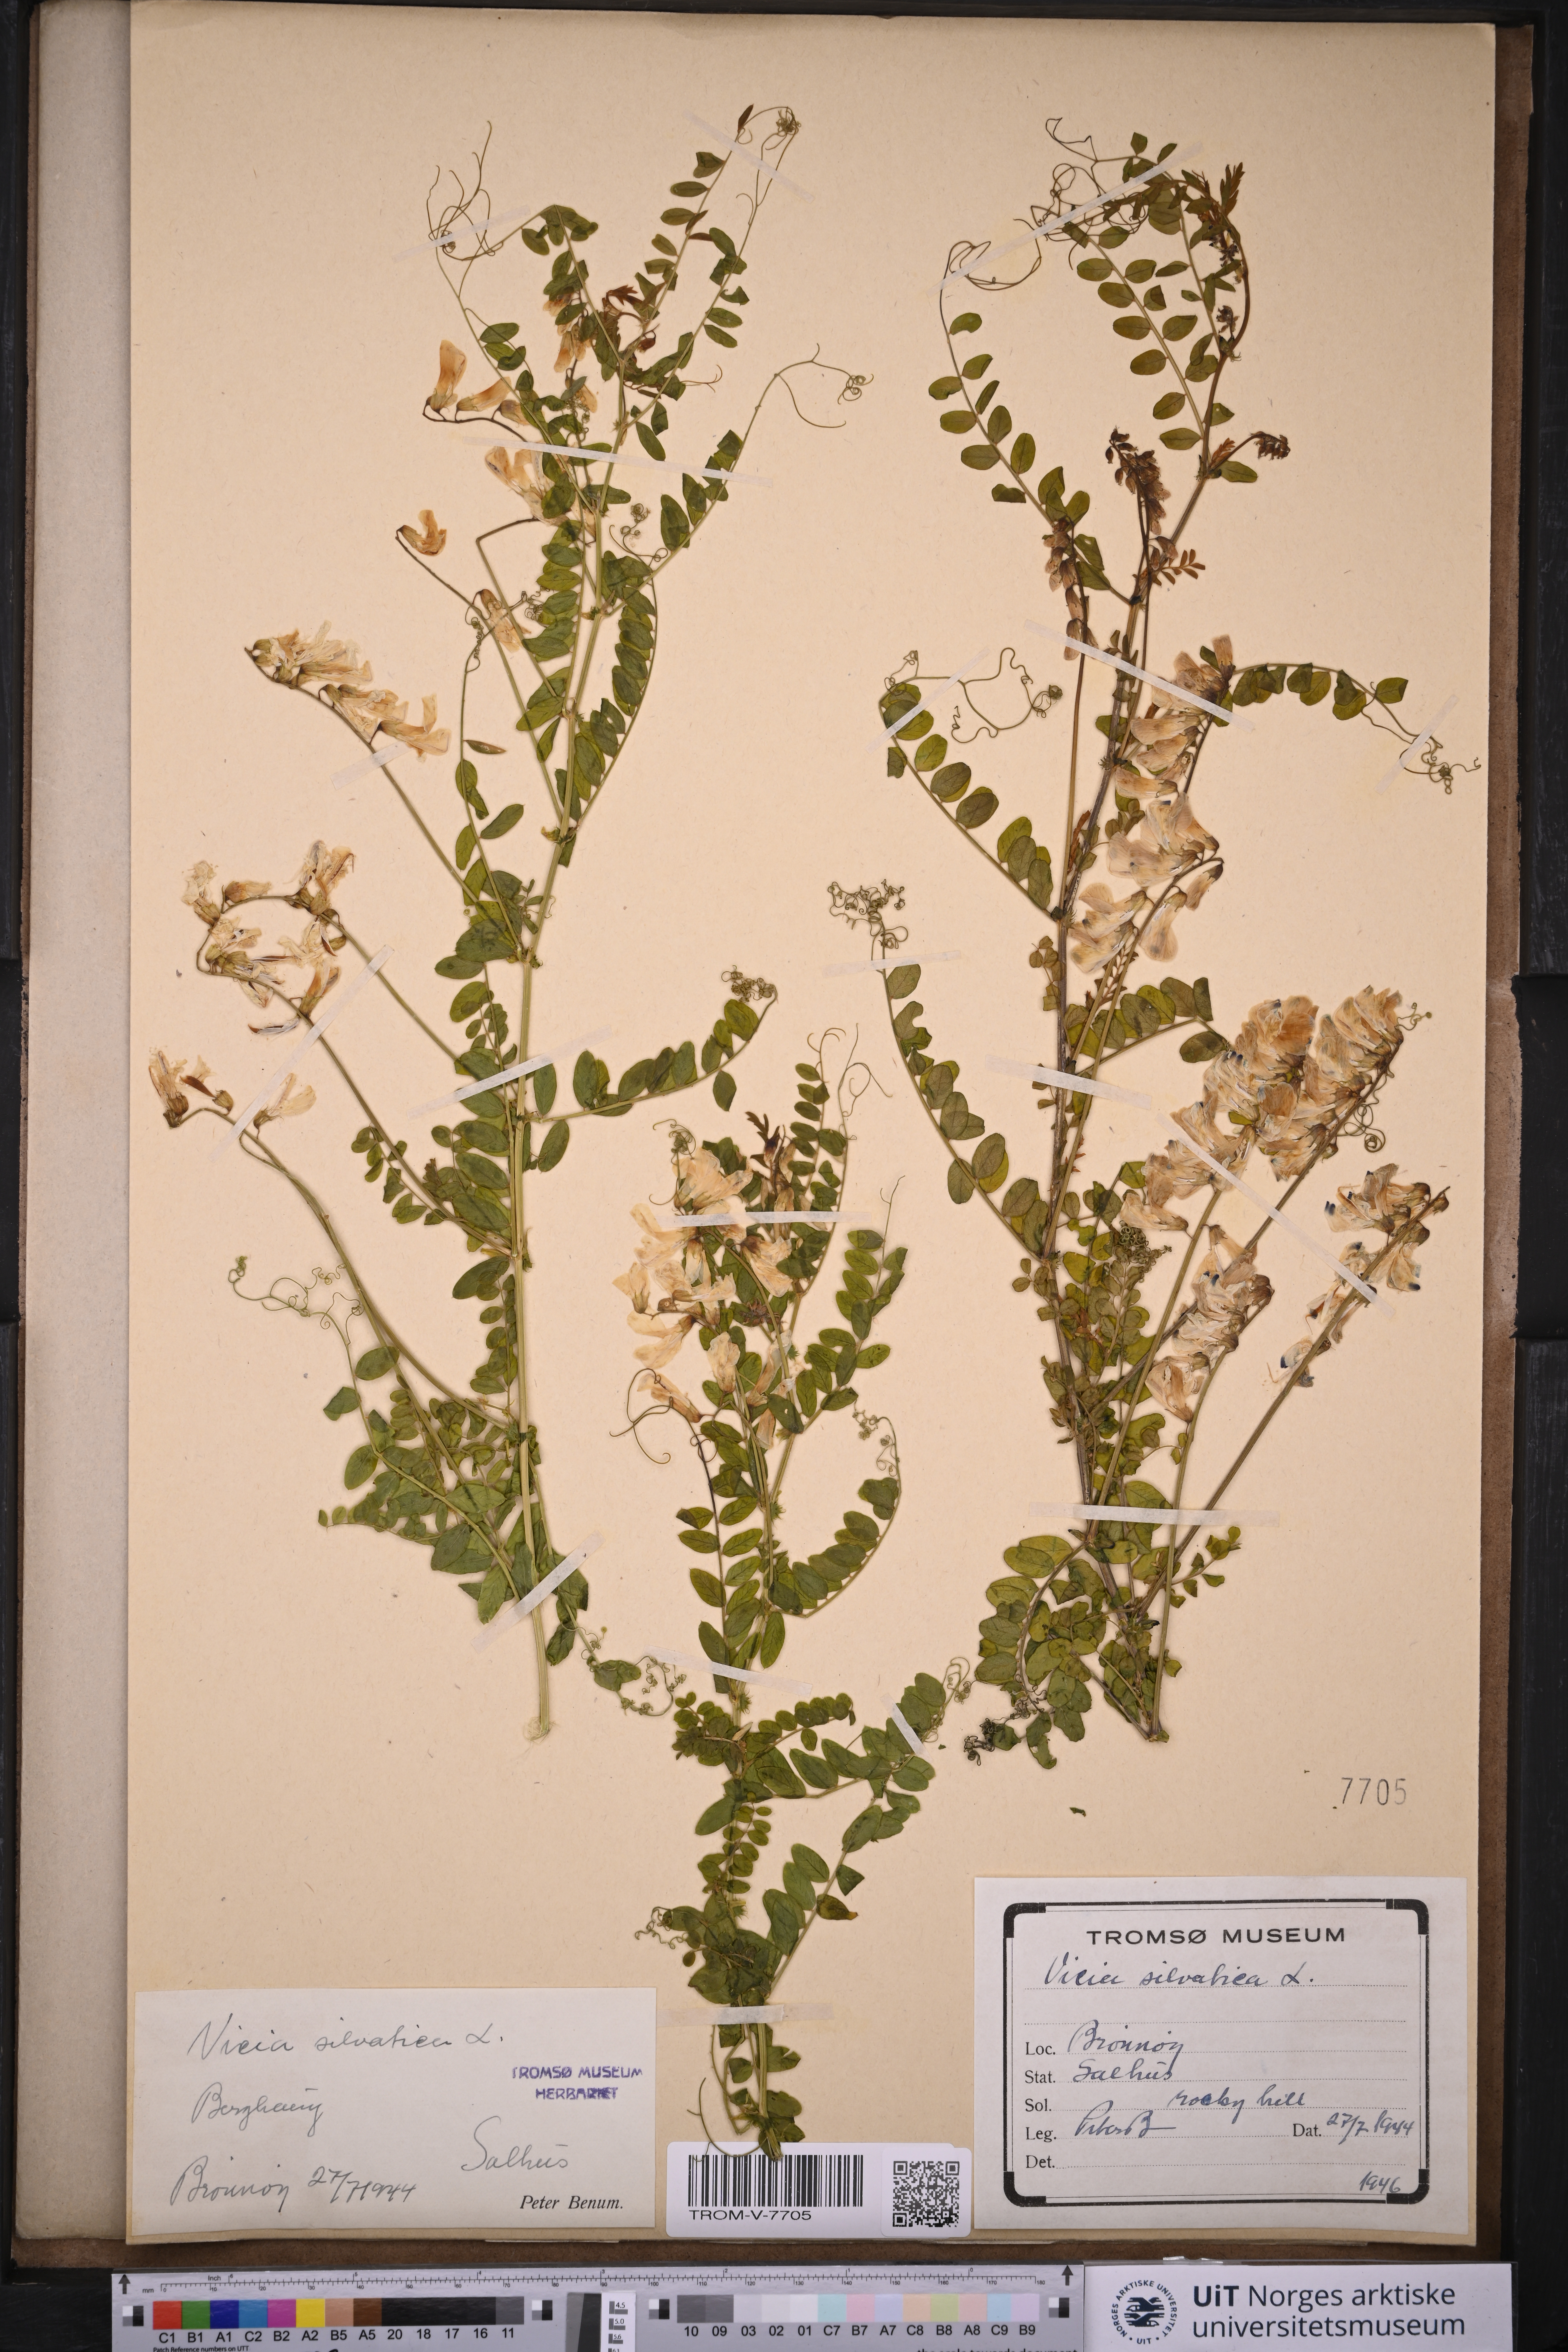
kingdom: Plantae
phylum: Tracheophyta
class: Magnoliopsida
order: Fabales
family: Fabaceae
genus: Vicia
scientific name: Vicia sylvatica
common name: Wood vetch
